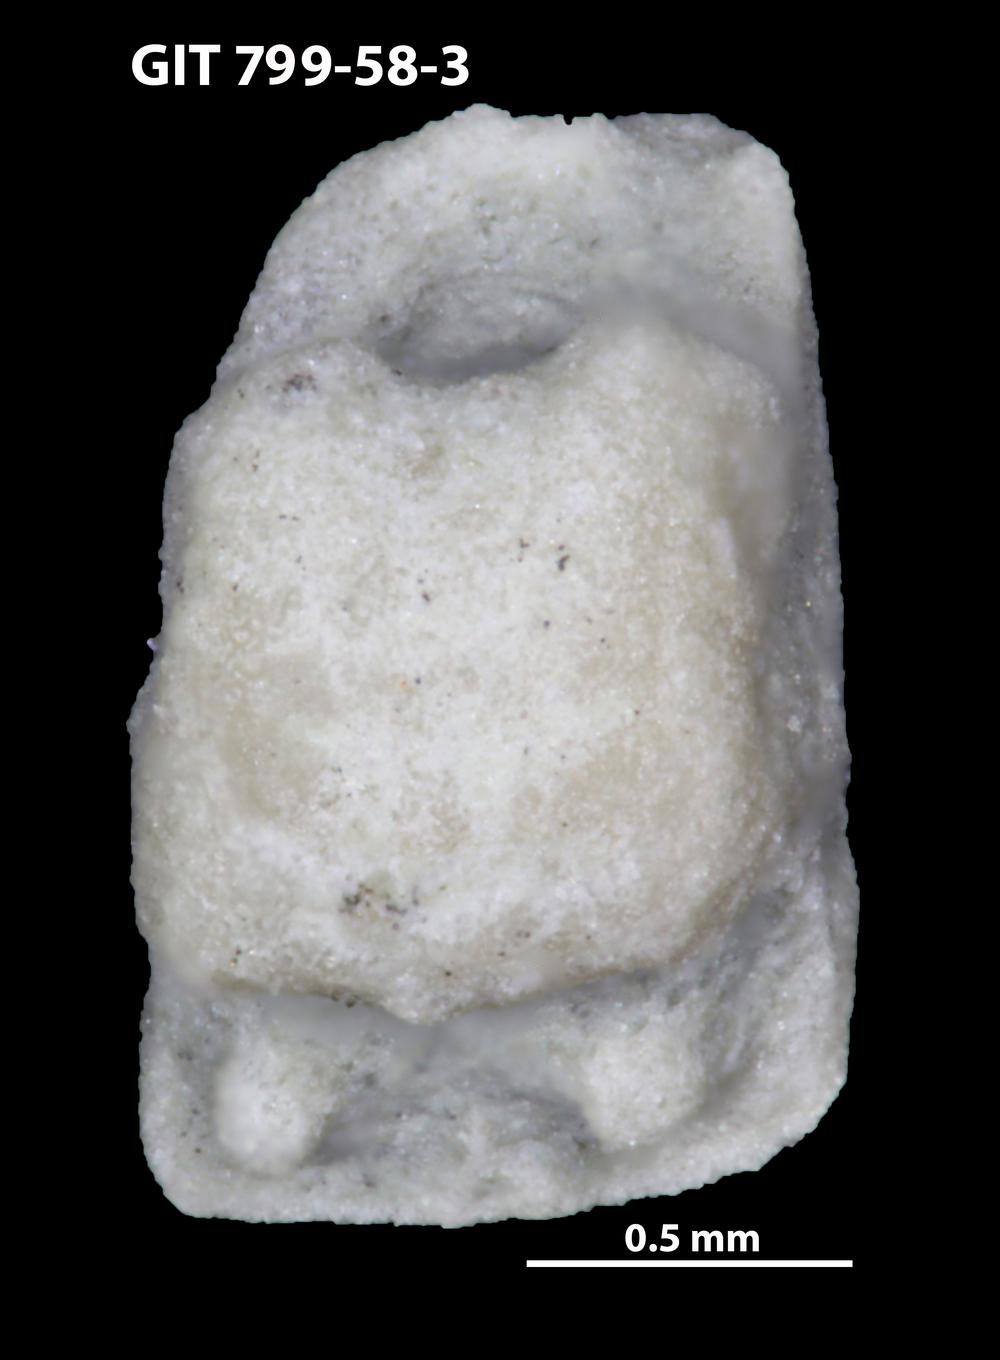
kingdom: Animalia
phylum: Echinodermata
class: Crinoidea
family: Cyclocystoididae
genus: Polytryphocycloides
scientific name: Polytryphocycloides Cyclocystoides lindstroemi
